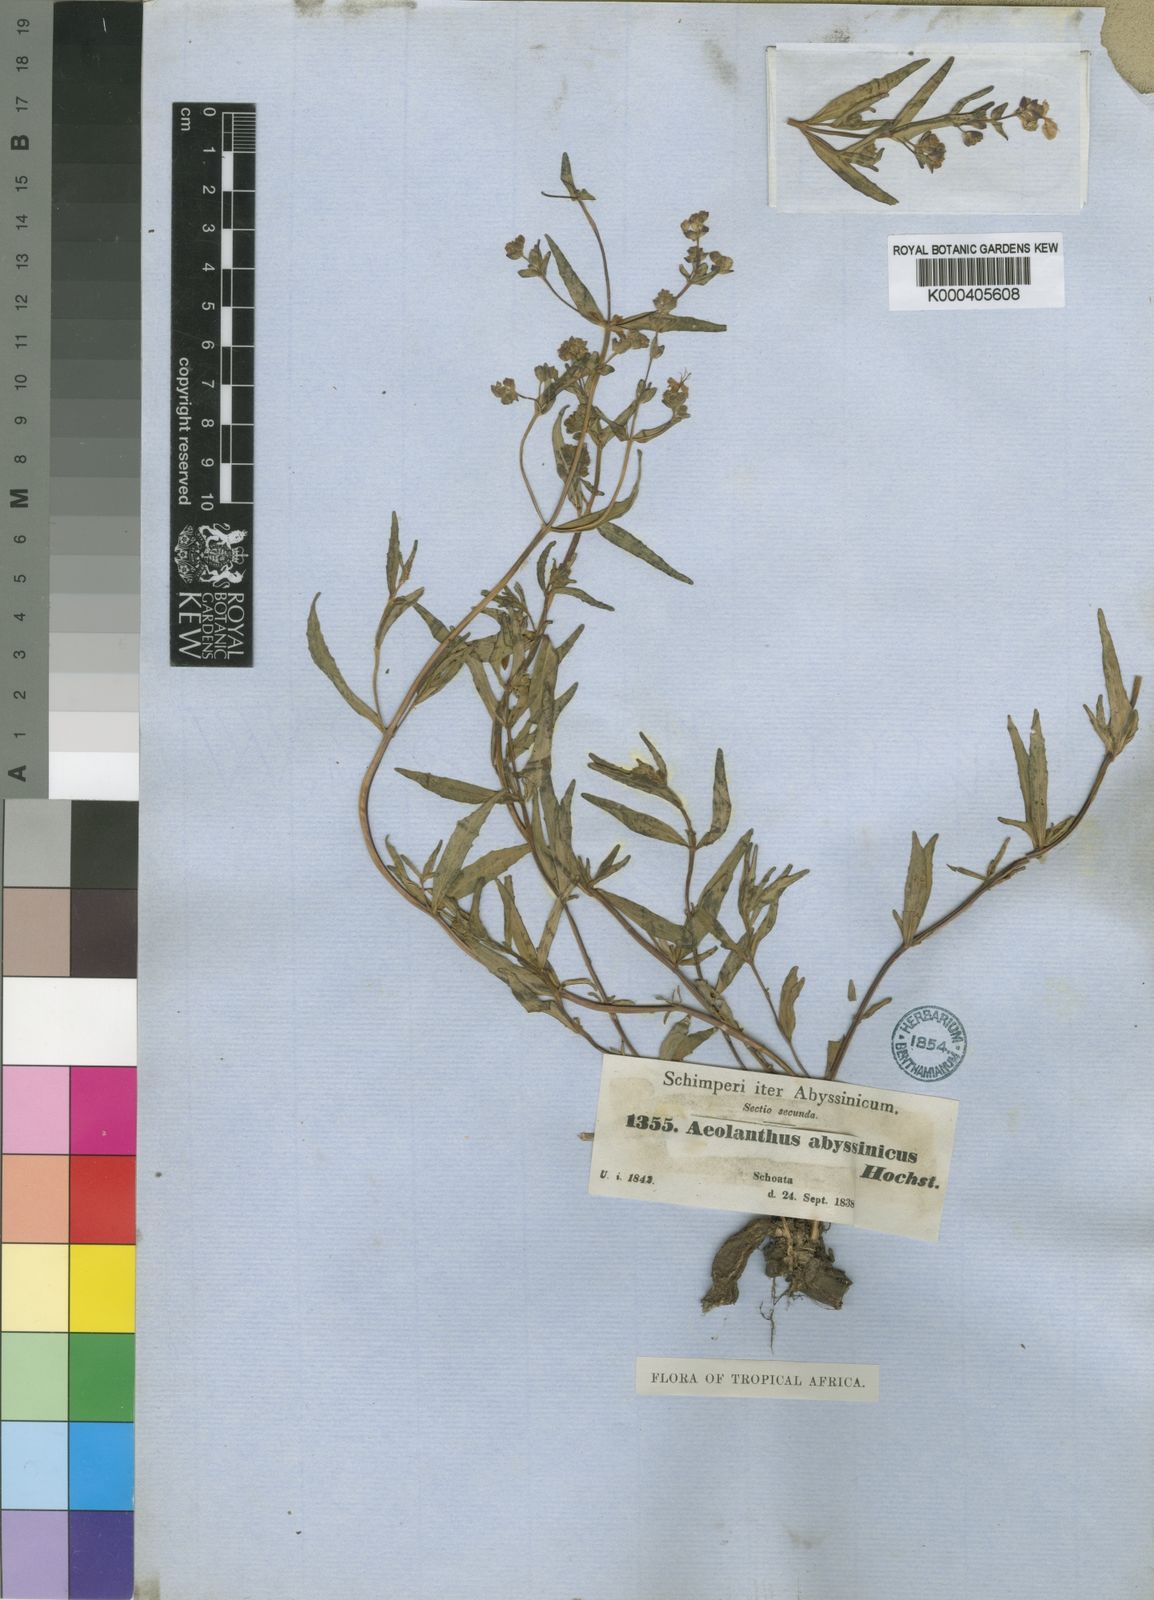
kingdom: Plantae
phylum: Tracheophyta
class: Magnoliopsida
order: Lamiales
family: Lamiaceae
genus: Aeollanthus
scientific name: Aeollanthus abyssinicus
